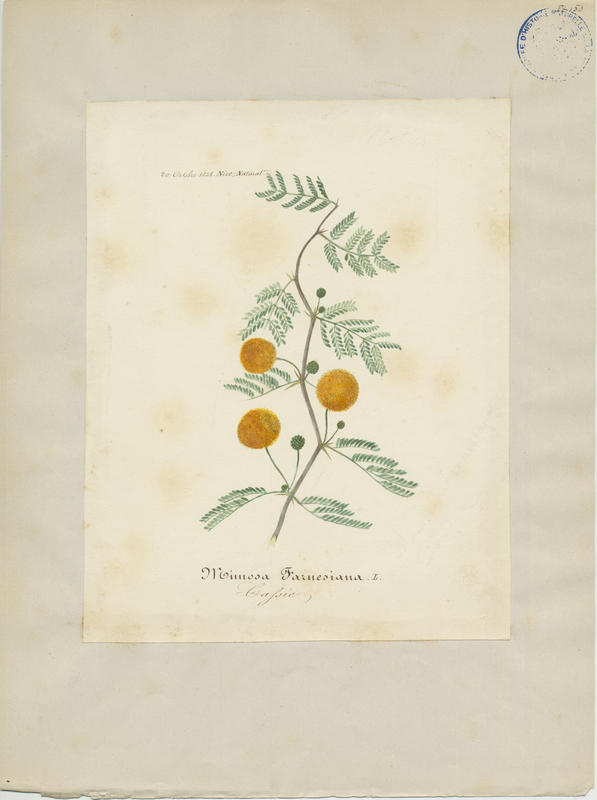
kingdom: Plantae
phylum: Tracheophyta
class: Magnoliopsida
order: Fabales
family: Fabaceae
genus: Vachellia
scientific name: Vachellia farnesiana
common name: Sweet acacia
